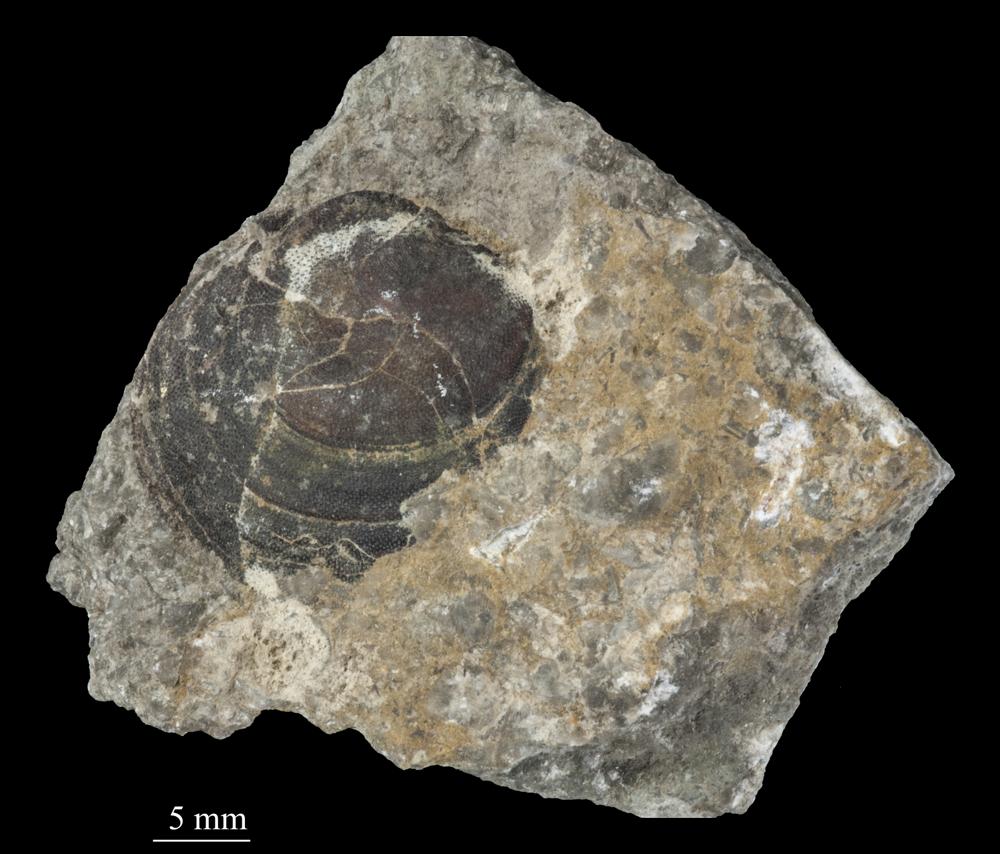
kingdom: Animalia
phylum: Brachiopoda
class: Lingulata
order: Siphonotretida
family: Siphonotretidae
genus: Siphonotreta
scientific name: Siphonotreta
